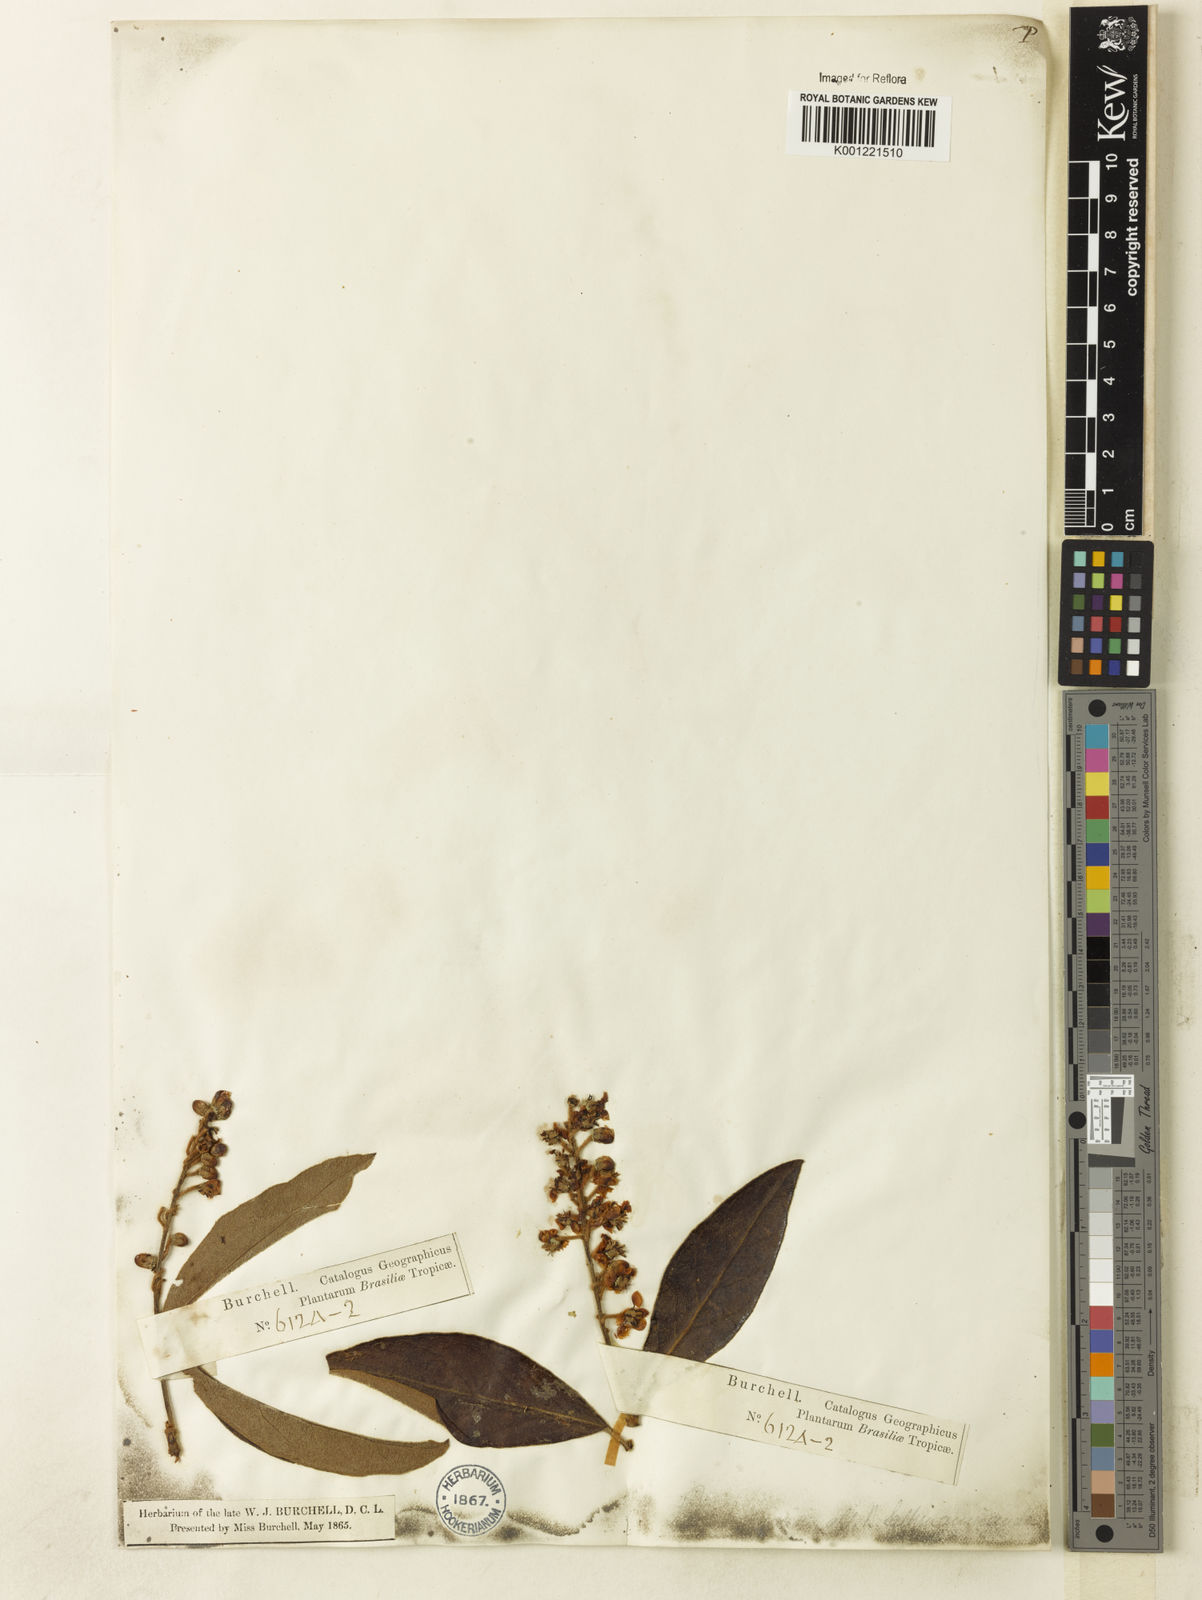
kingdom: Plantae
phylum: Tracheophyta
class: Magnoliopsida
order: Malpighiales
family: Malpighiaceae
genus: Byrsonima
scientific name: Byrsonima salzmanniana
